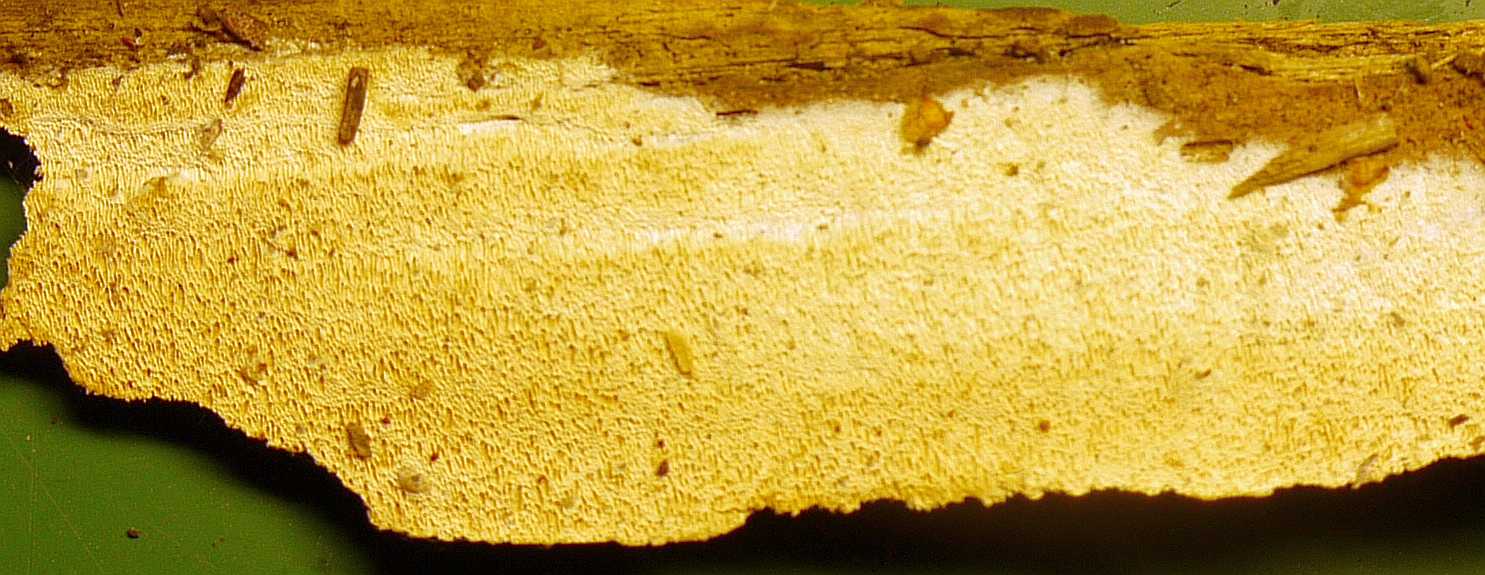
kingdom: Fungi
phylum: Basidiomycota
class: Agaricomycetes
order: Polyporales
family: Incrustoporiaceae
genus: Skeletocutis
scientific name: Skeletocutis subincarnata
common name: kødfarvet krystalporesvamp
